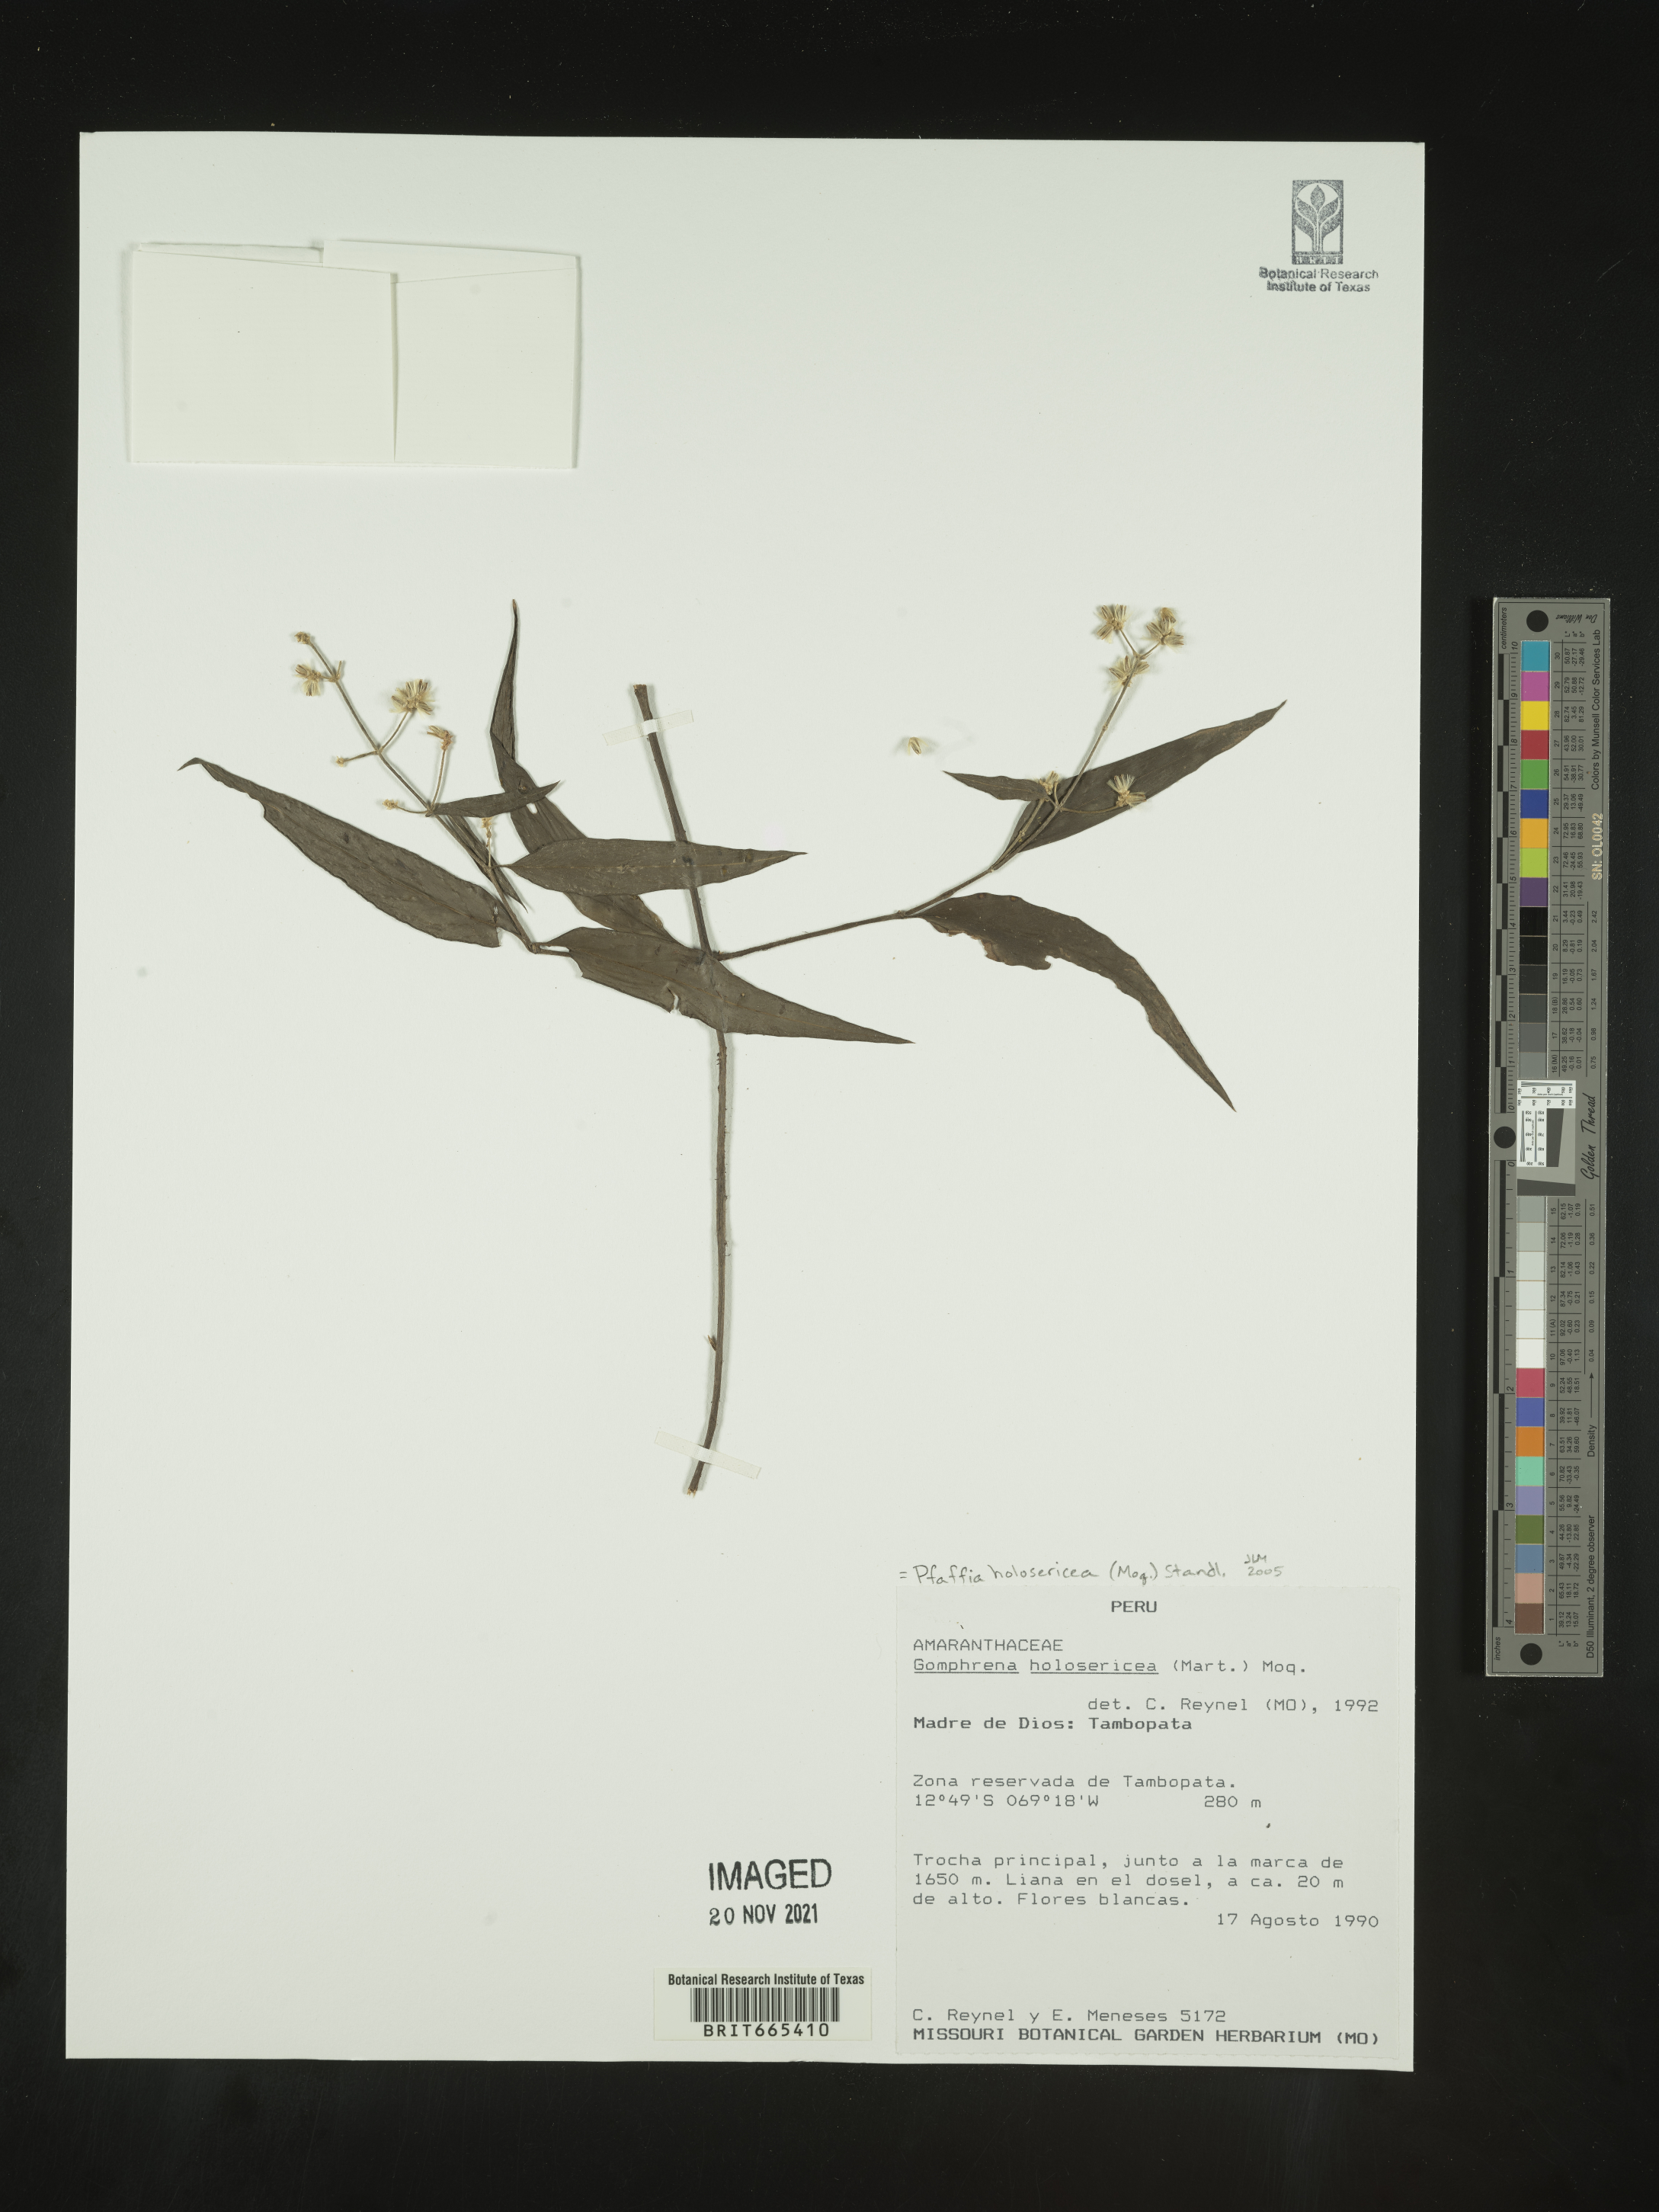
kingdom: Plantae
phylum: Tracheophyta
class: Magnoliopsida
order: Caryophyllales
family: Amaranthaceae
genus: Pfaffia
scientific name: Pfaffia
